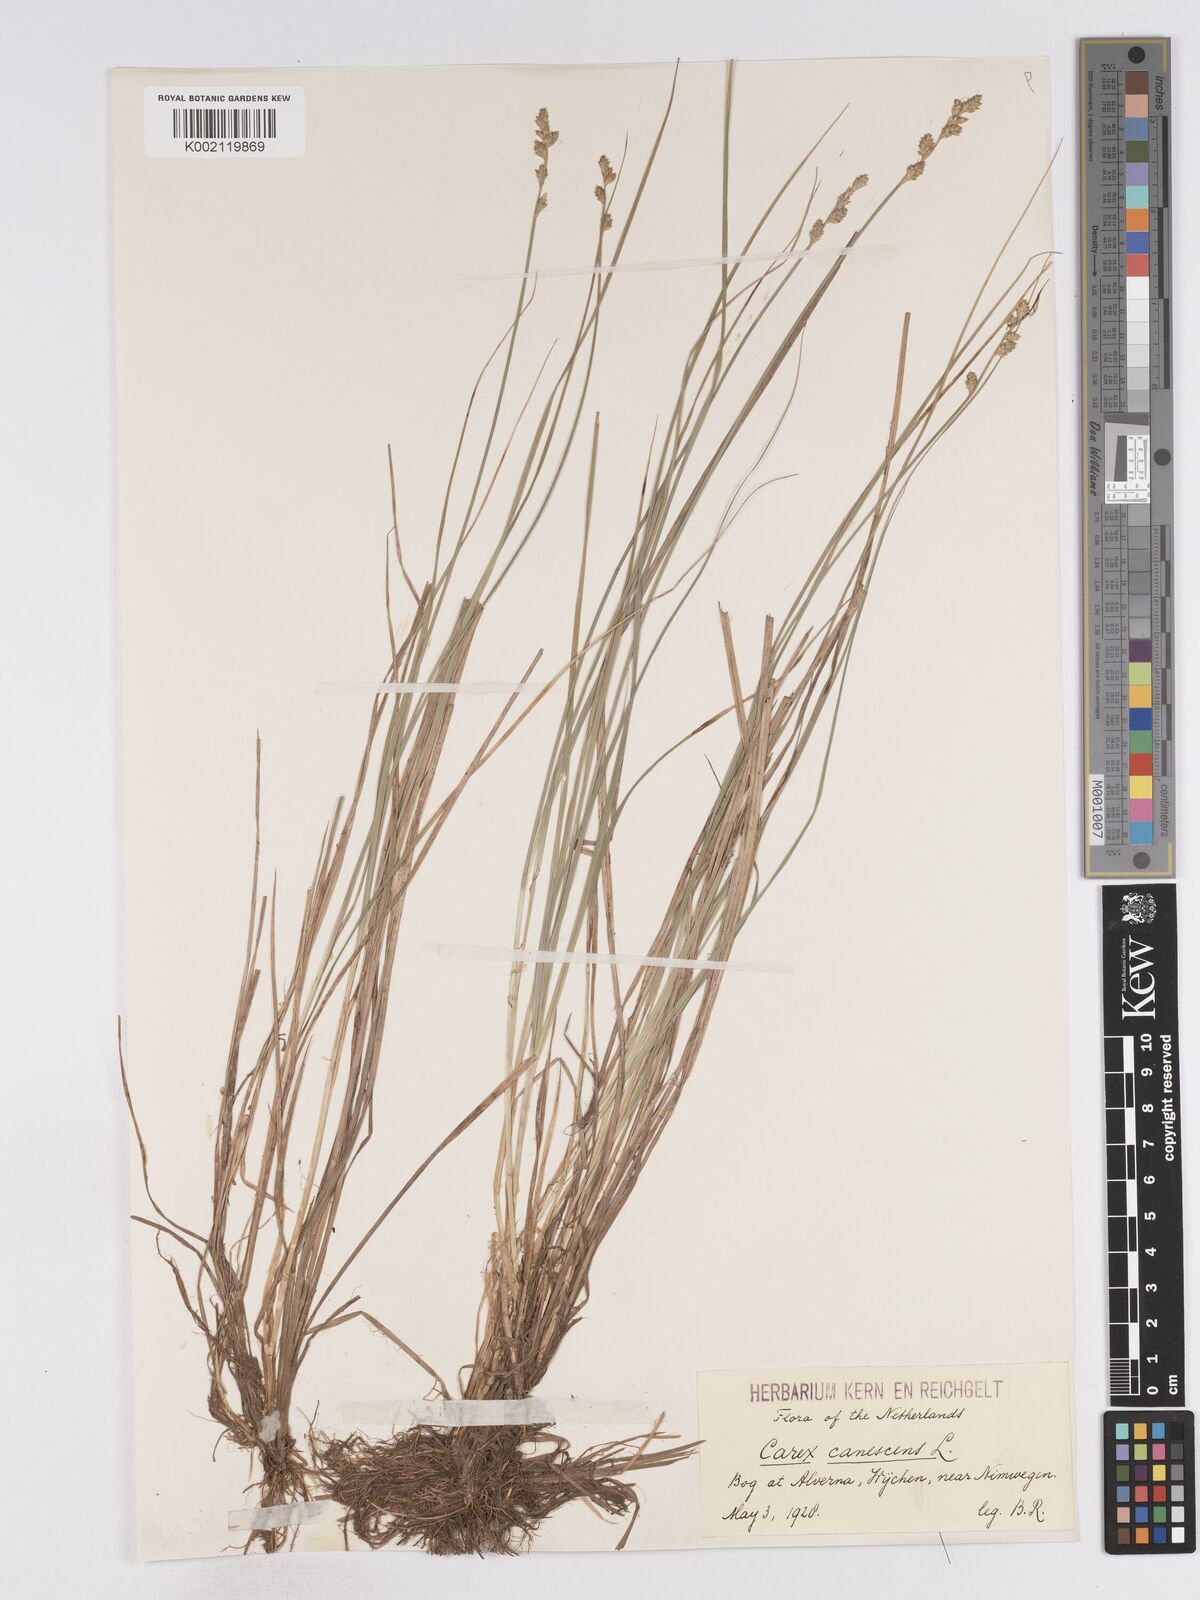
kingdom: Plantae
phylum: Tracheophyta
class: Liliopsida
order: Poales
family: Cyperaceae
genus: Carex
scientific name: Carex curta
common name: White sedge
